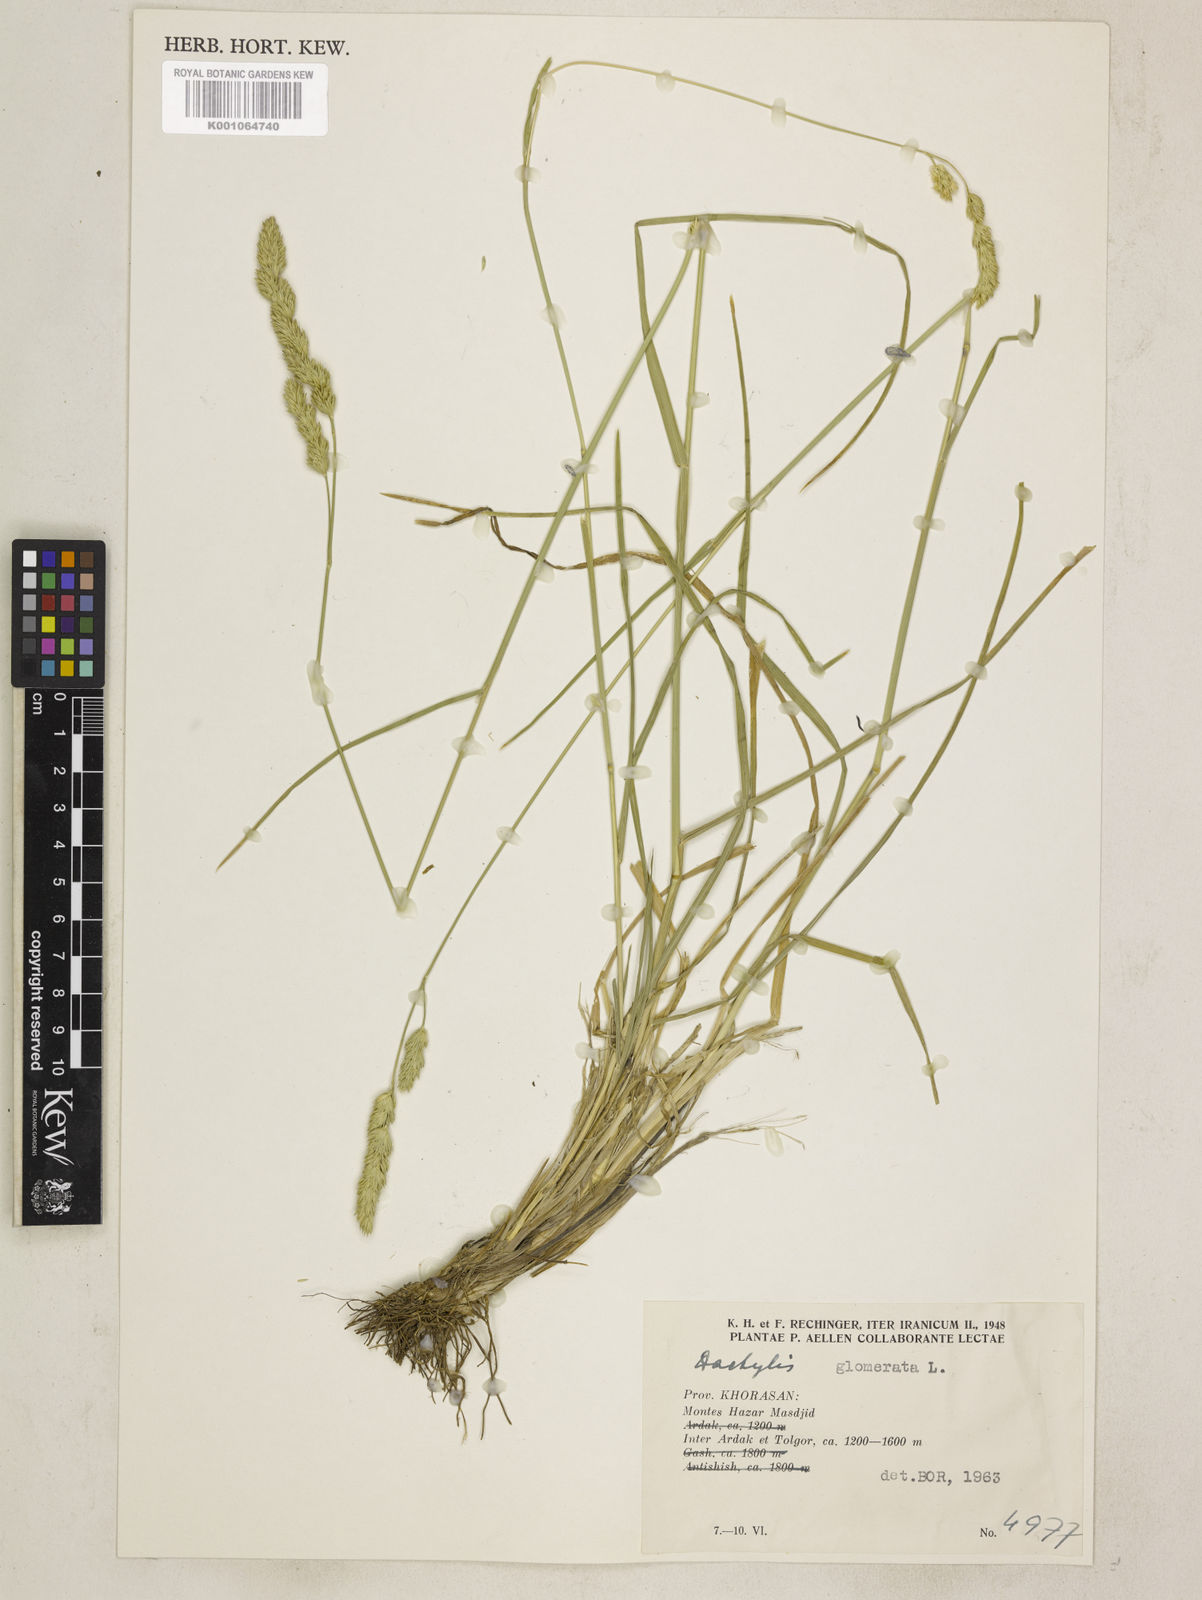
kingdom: Plantae
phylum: Tracheophyta
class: Liliopsida
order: Poales
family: Poaceae
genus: Dactylis
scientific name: Dactylis glomerata
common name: Orchardgrass
